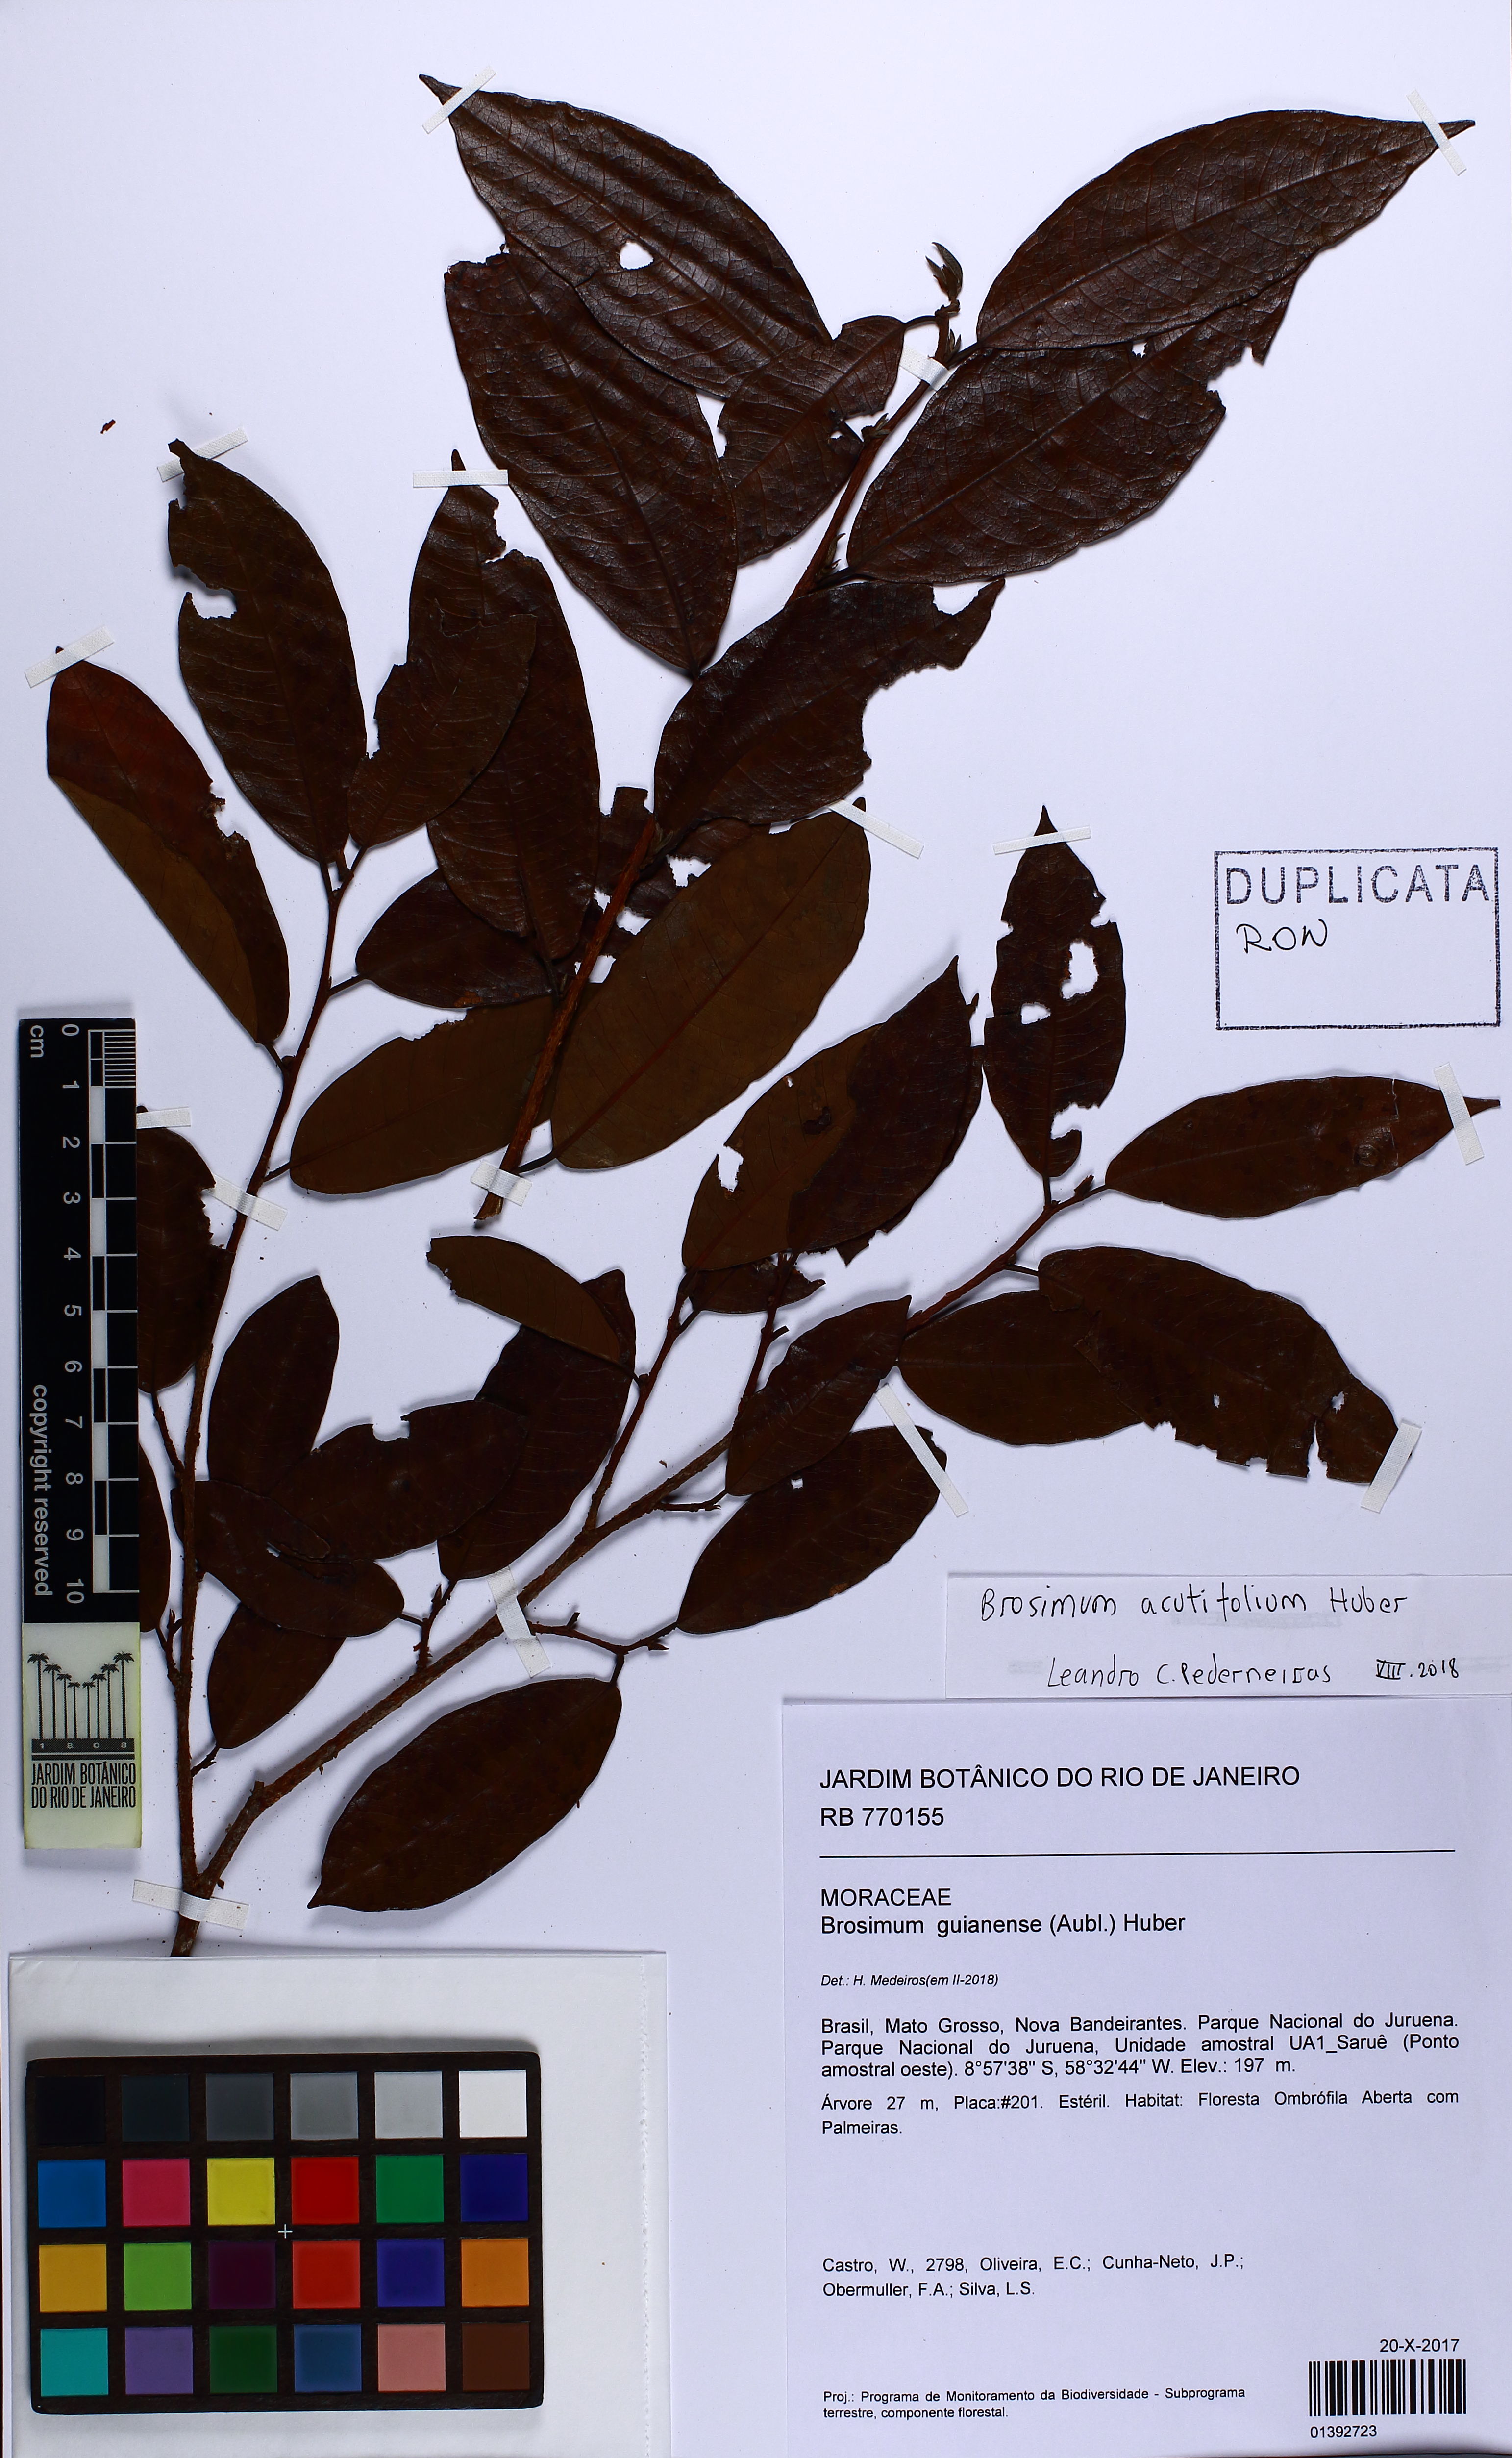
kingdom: Plantae
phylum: Tracheophyta
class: Magnoliopsida
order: Rosales
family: Moraceae
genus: Brosimum
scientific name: Brosimum acutifolium
